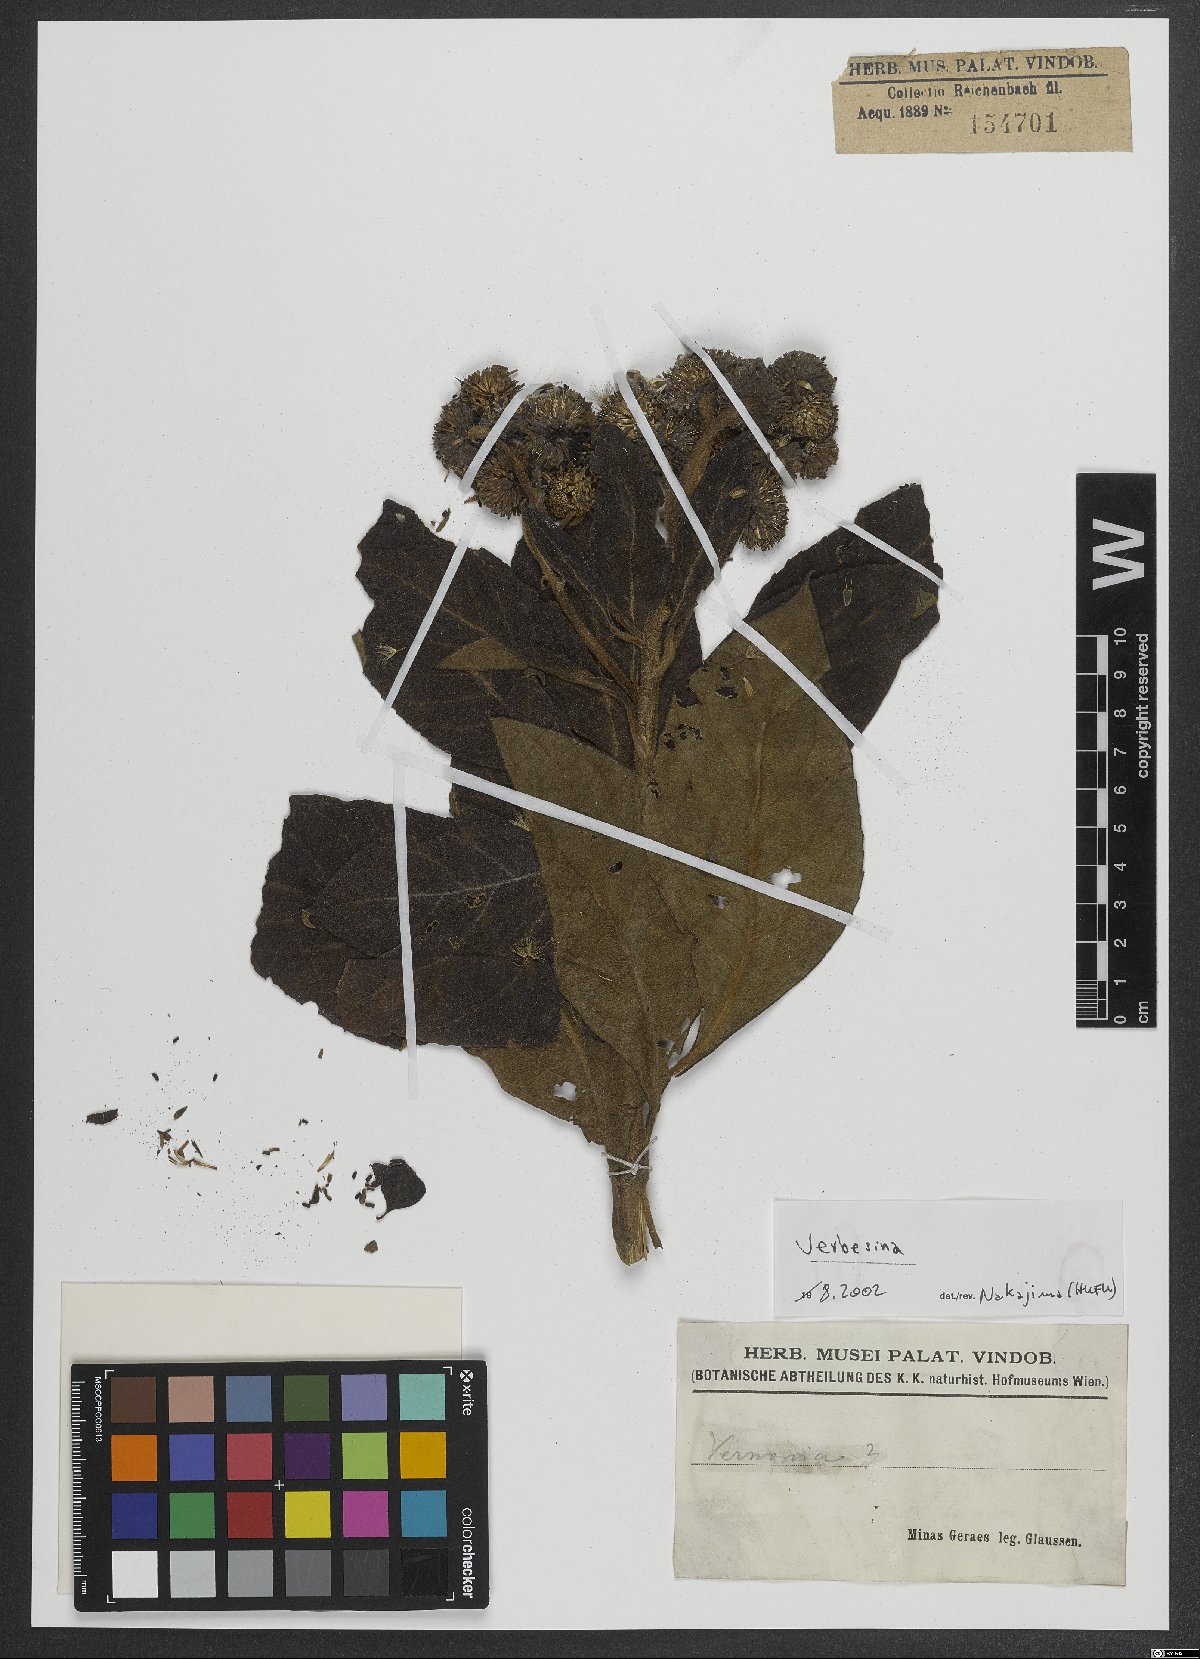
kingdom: Plantae
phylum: Tracheophyta
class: Magnoliopsida
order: Asterales
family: Asteraceae
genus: Verbesina
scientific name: Verbesina
